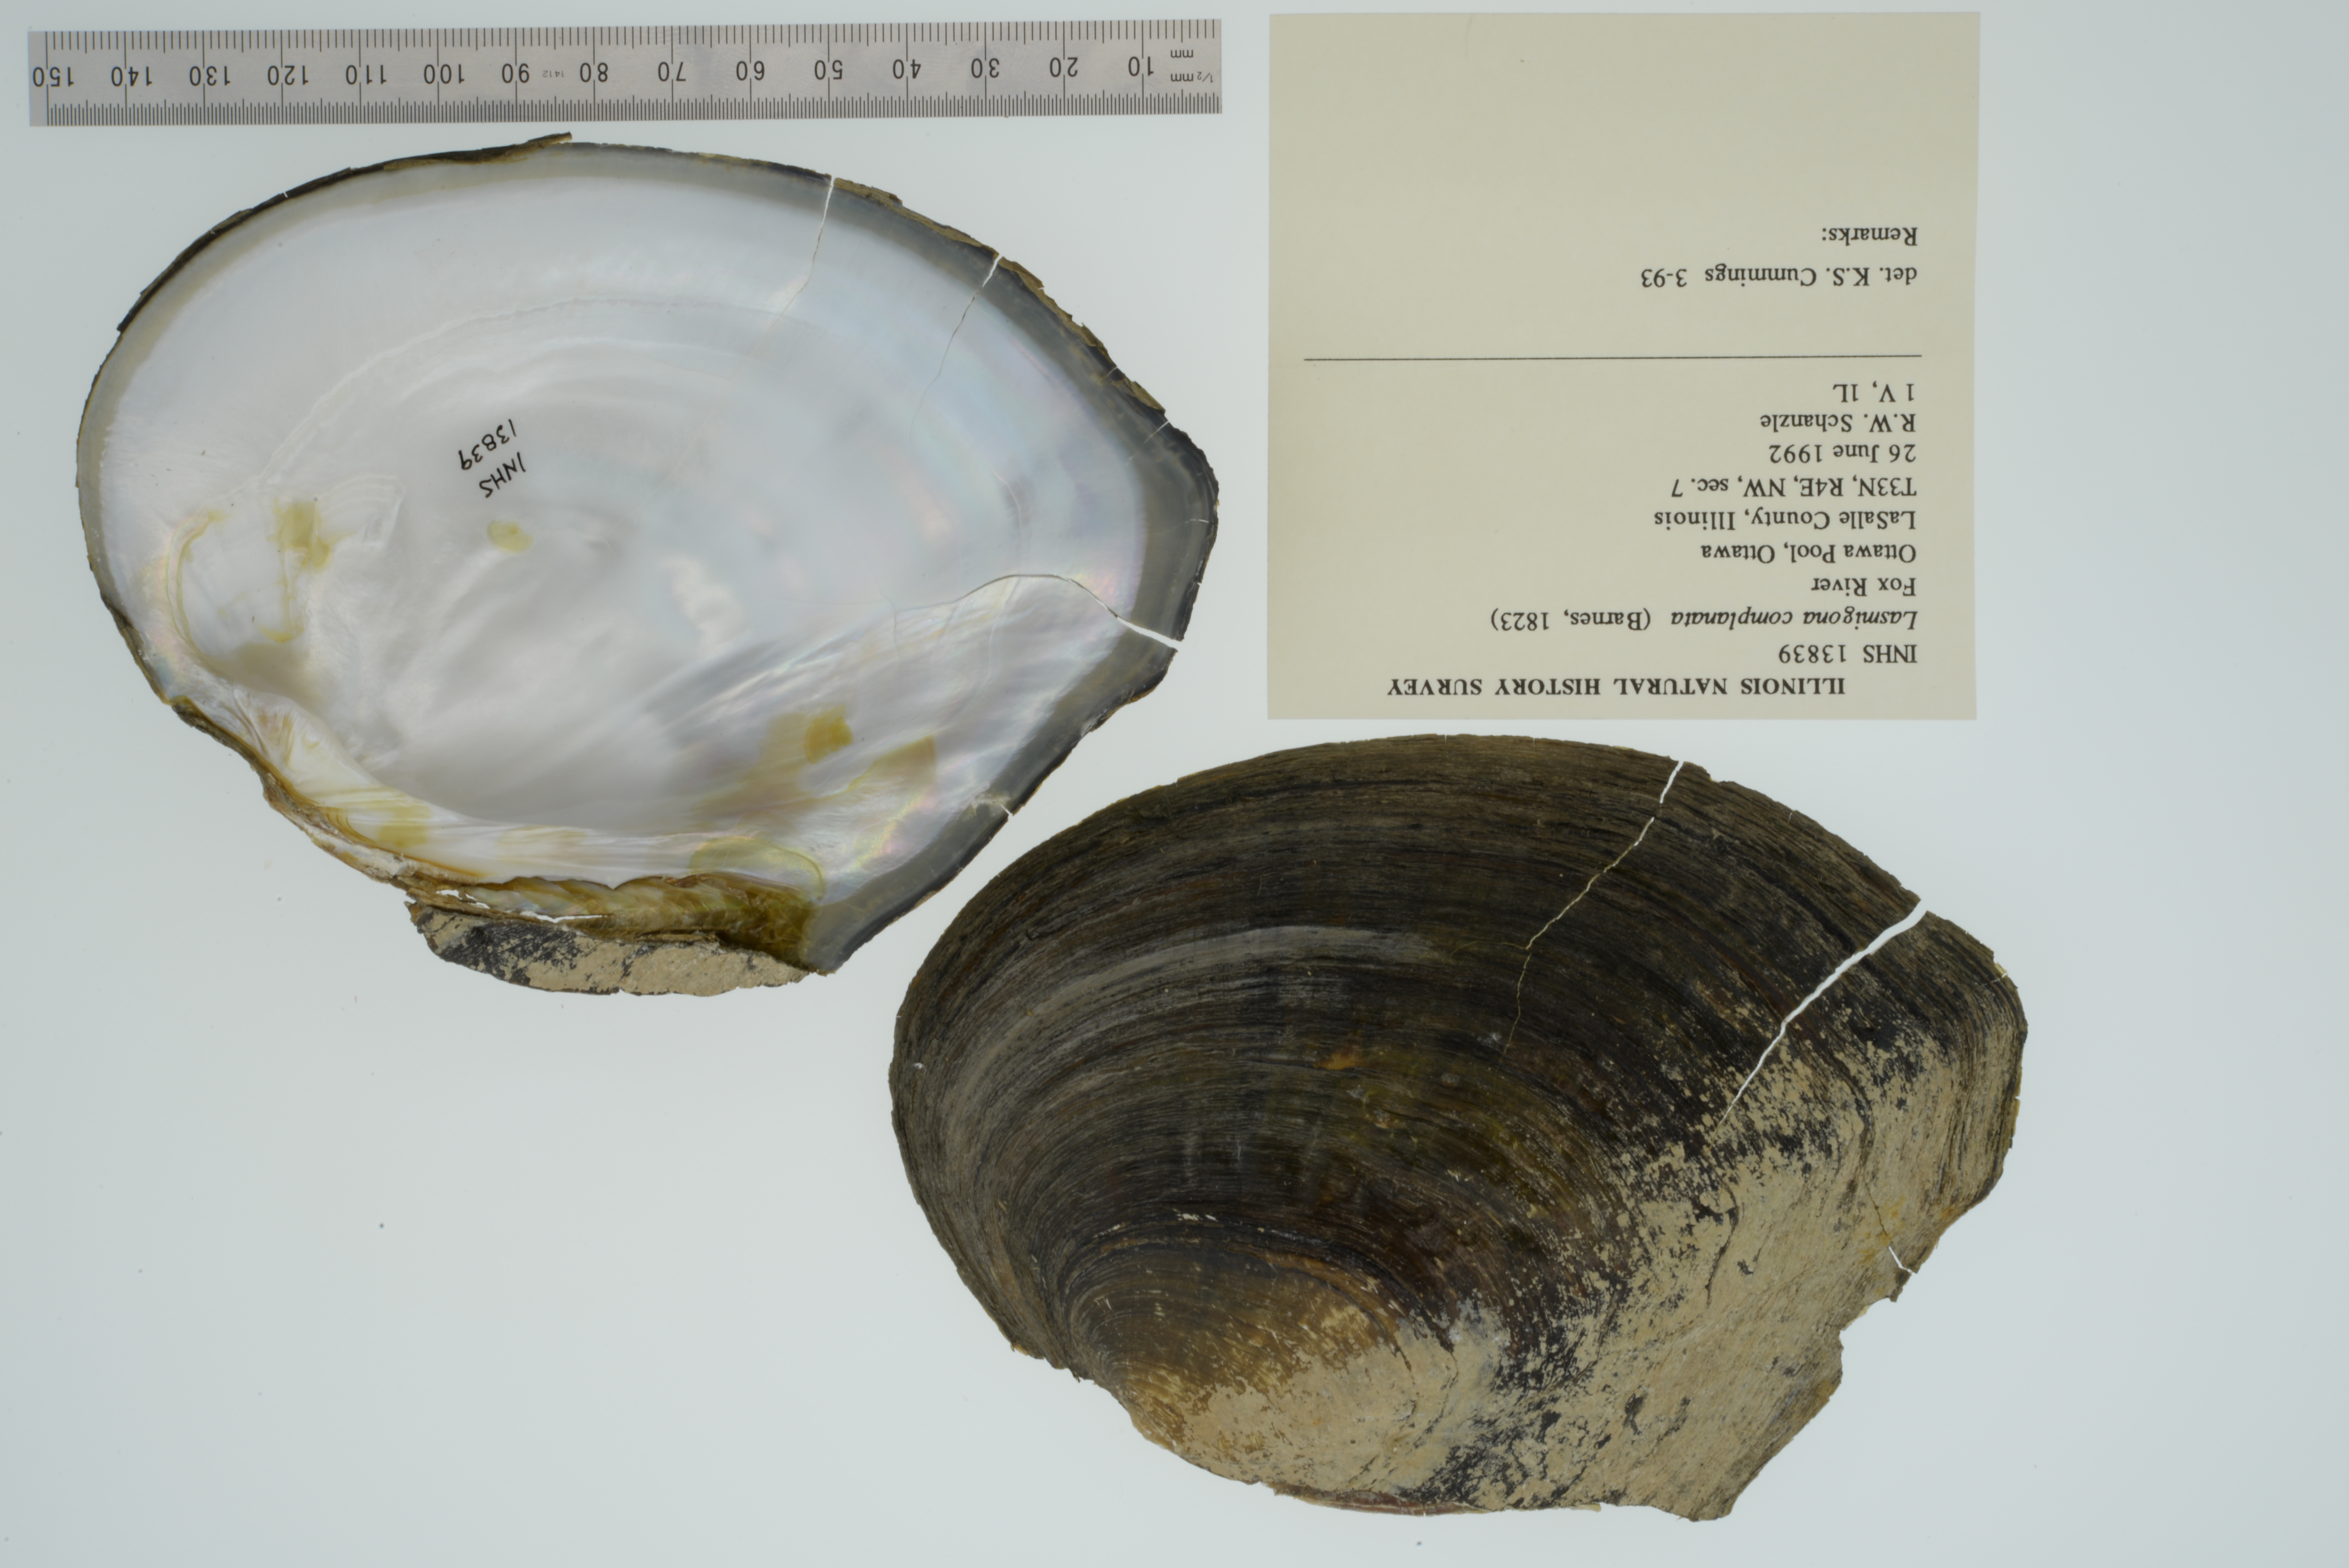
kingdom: Animalia
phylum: Mollusca
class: Bivalvia
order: Unionida
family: Unionidae
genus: Lasmigona
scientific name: Lasmigona complanata
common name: White heelsplitter
